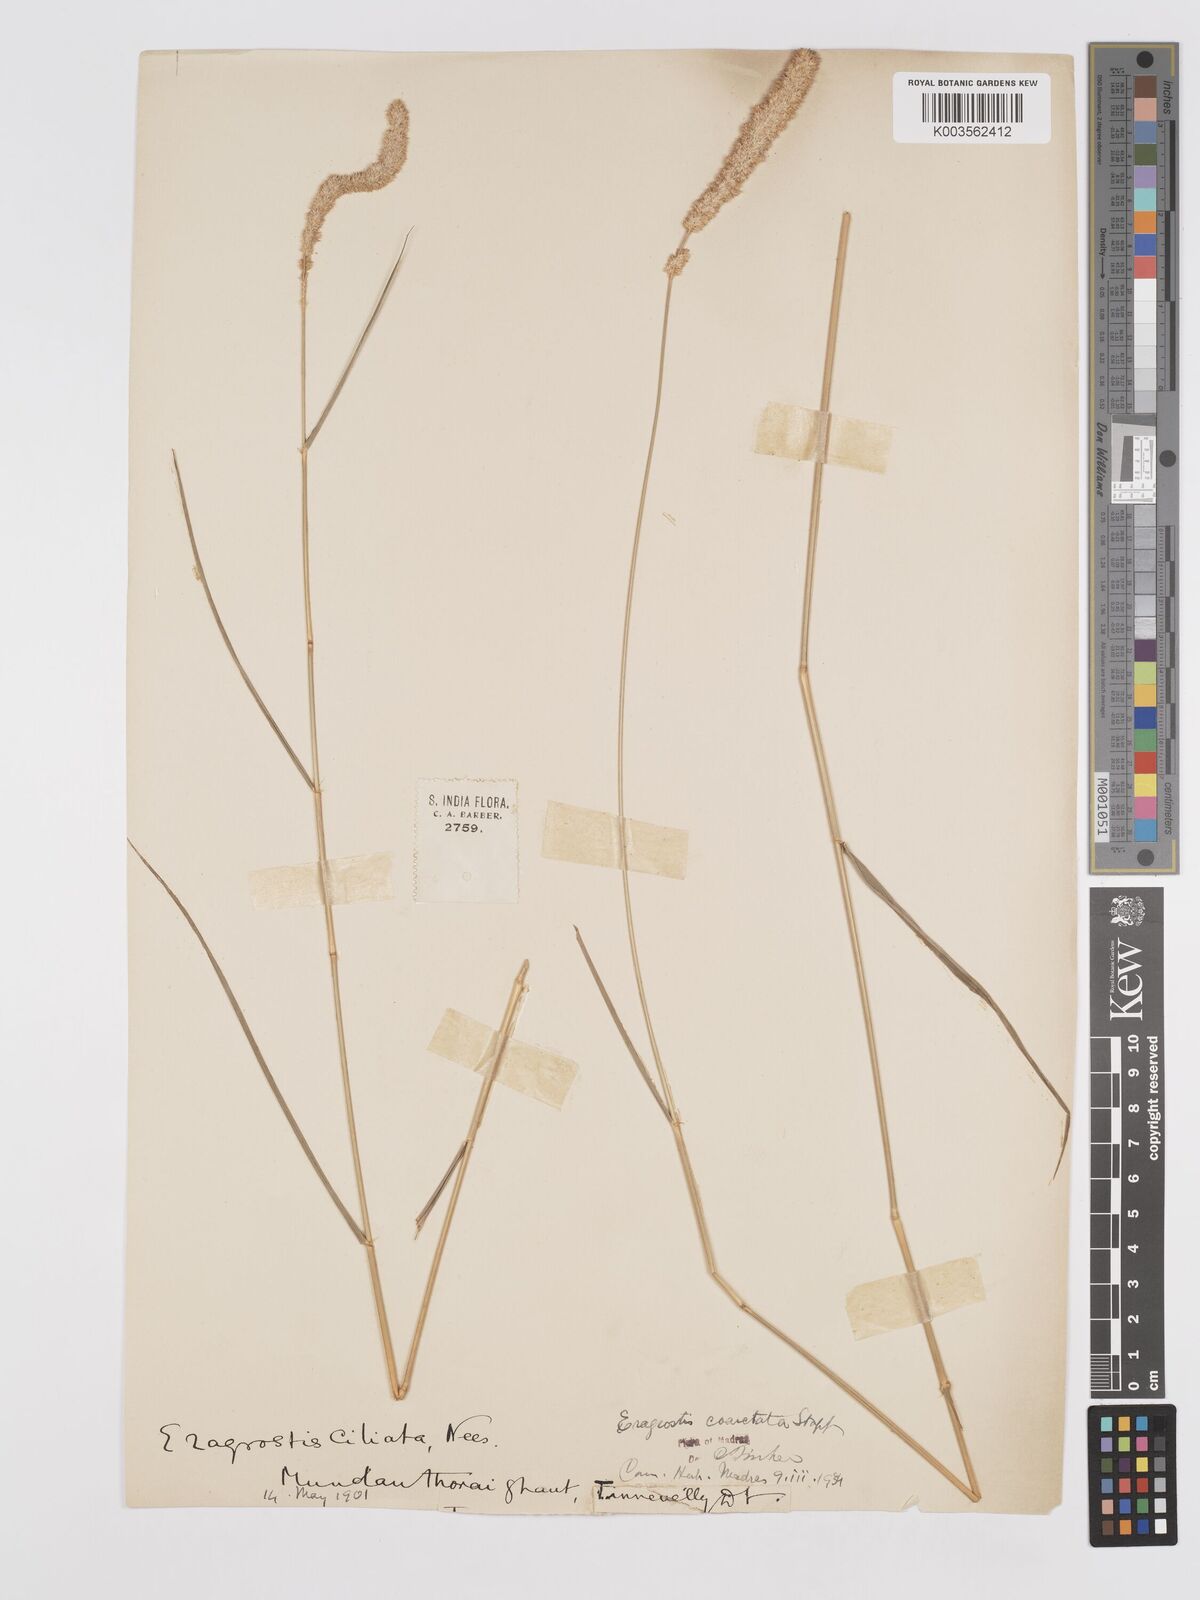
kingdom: Plantae
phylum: Tracheophyta
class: Liliopsida
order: Poales
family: Poaceae
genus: Eragrostis
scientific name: Eragrostis coarctata
